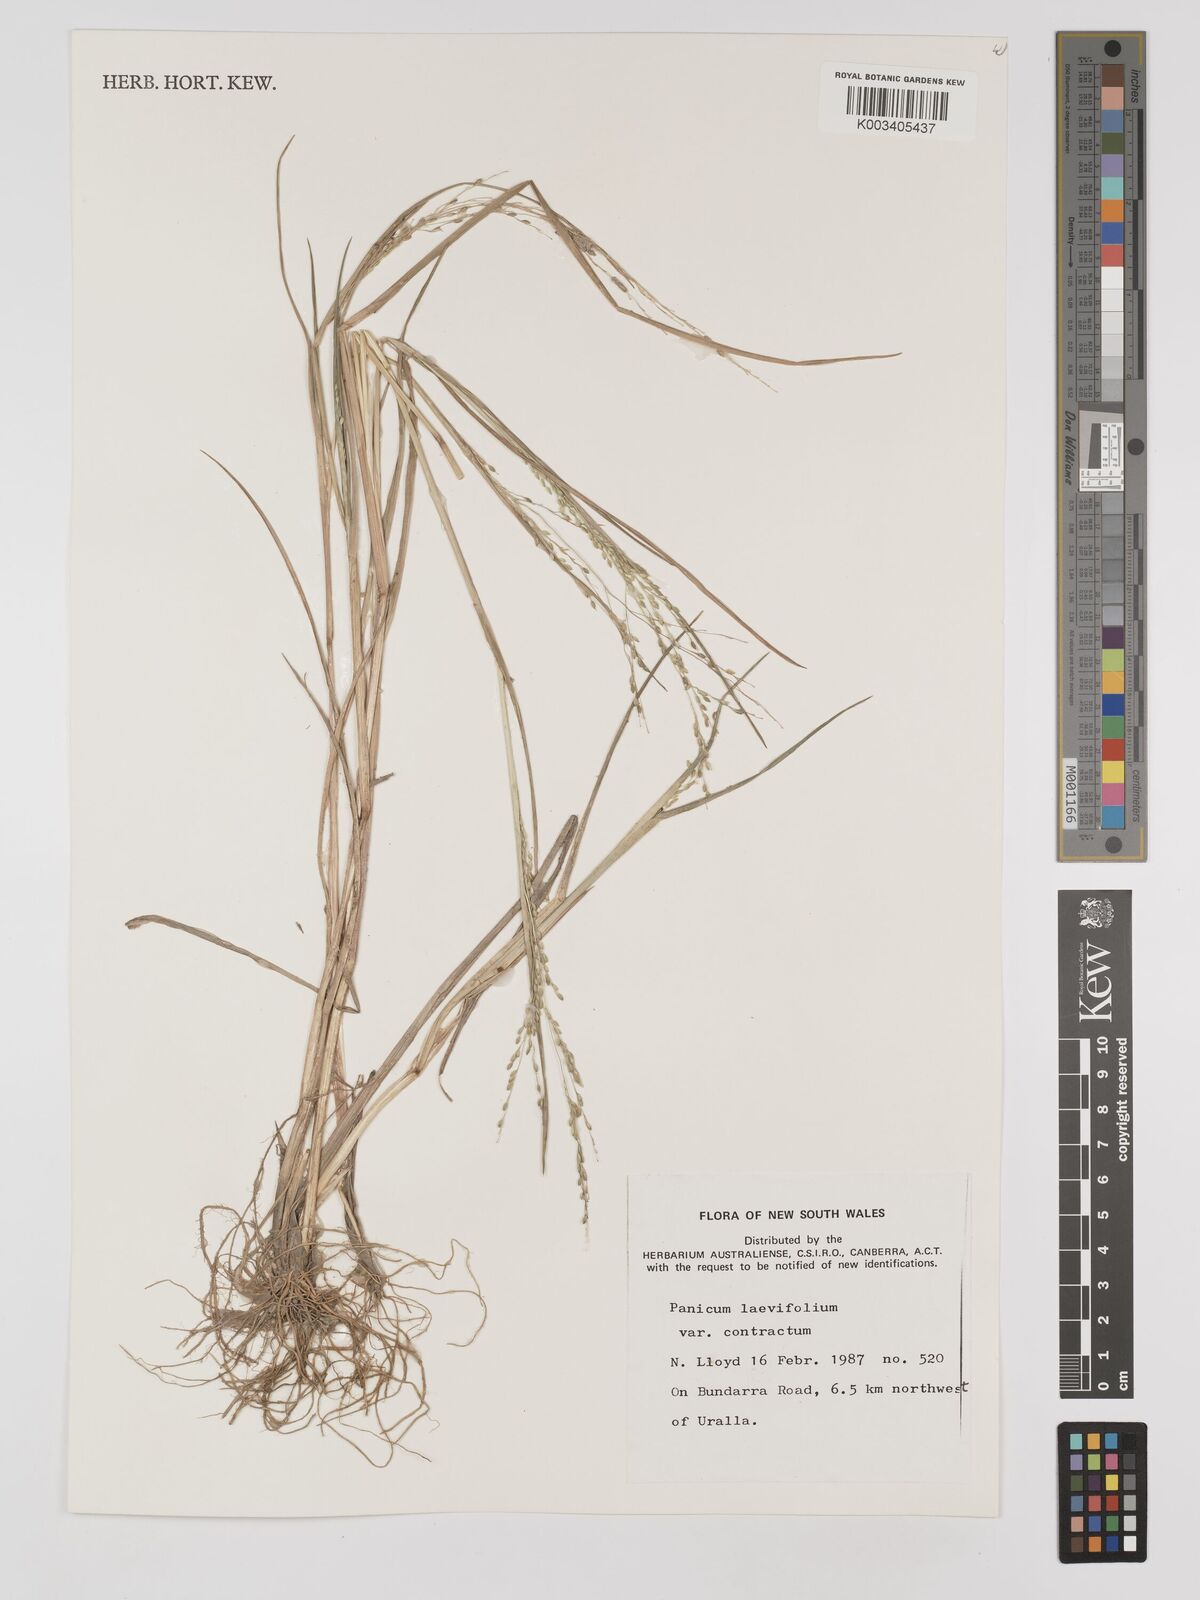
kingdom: Plantae
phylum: Tracheophyta
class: Liliopsida
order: Poales
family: Poaceae
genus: Panicum
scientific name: Panicum schinzii
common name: Sweet grass
